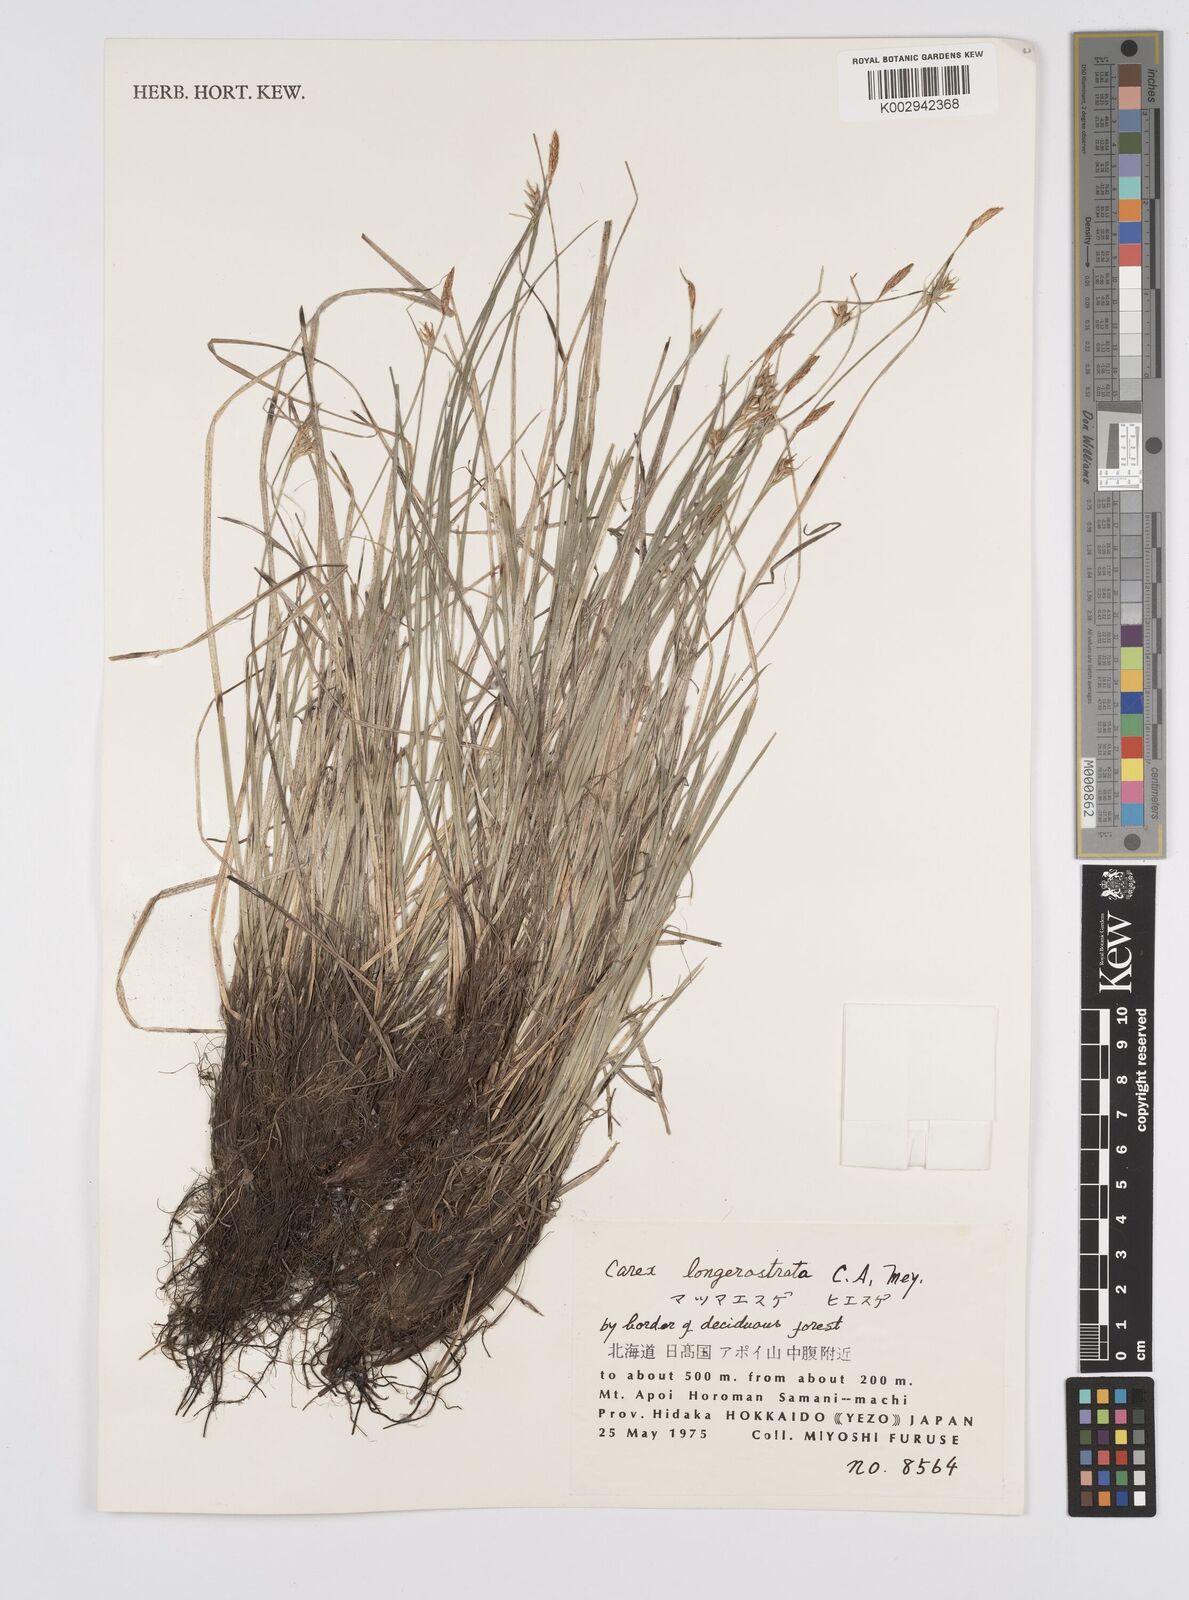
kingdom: Plantae
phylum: Tracheophyta
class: Liliopsida
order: Poales
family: Cyperaceae
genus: Carex
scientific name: Carex longerostrata
